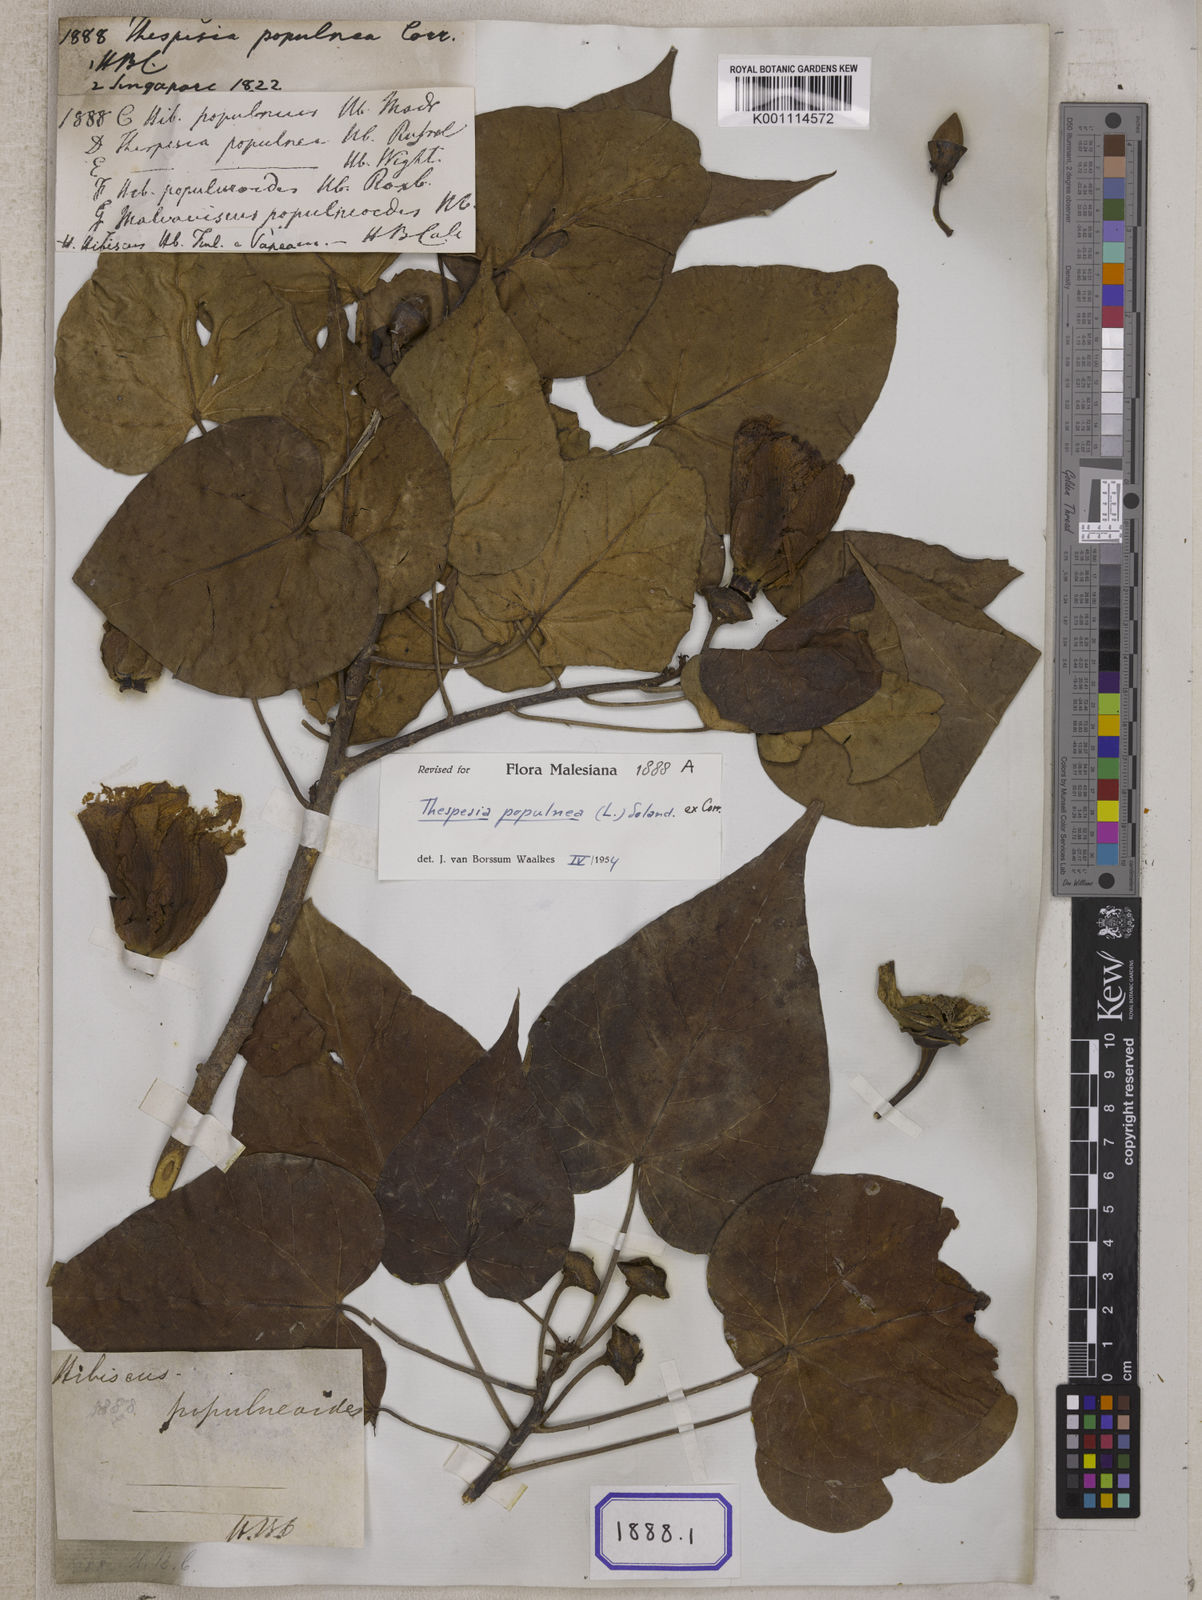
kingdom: Plantae
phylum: Tracheophyta
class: Magnoliopsida
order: Malvales
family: Malvaceae
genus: Thespesia
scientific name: Thespesia populnea
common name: Seaside mahoe
